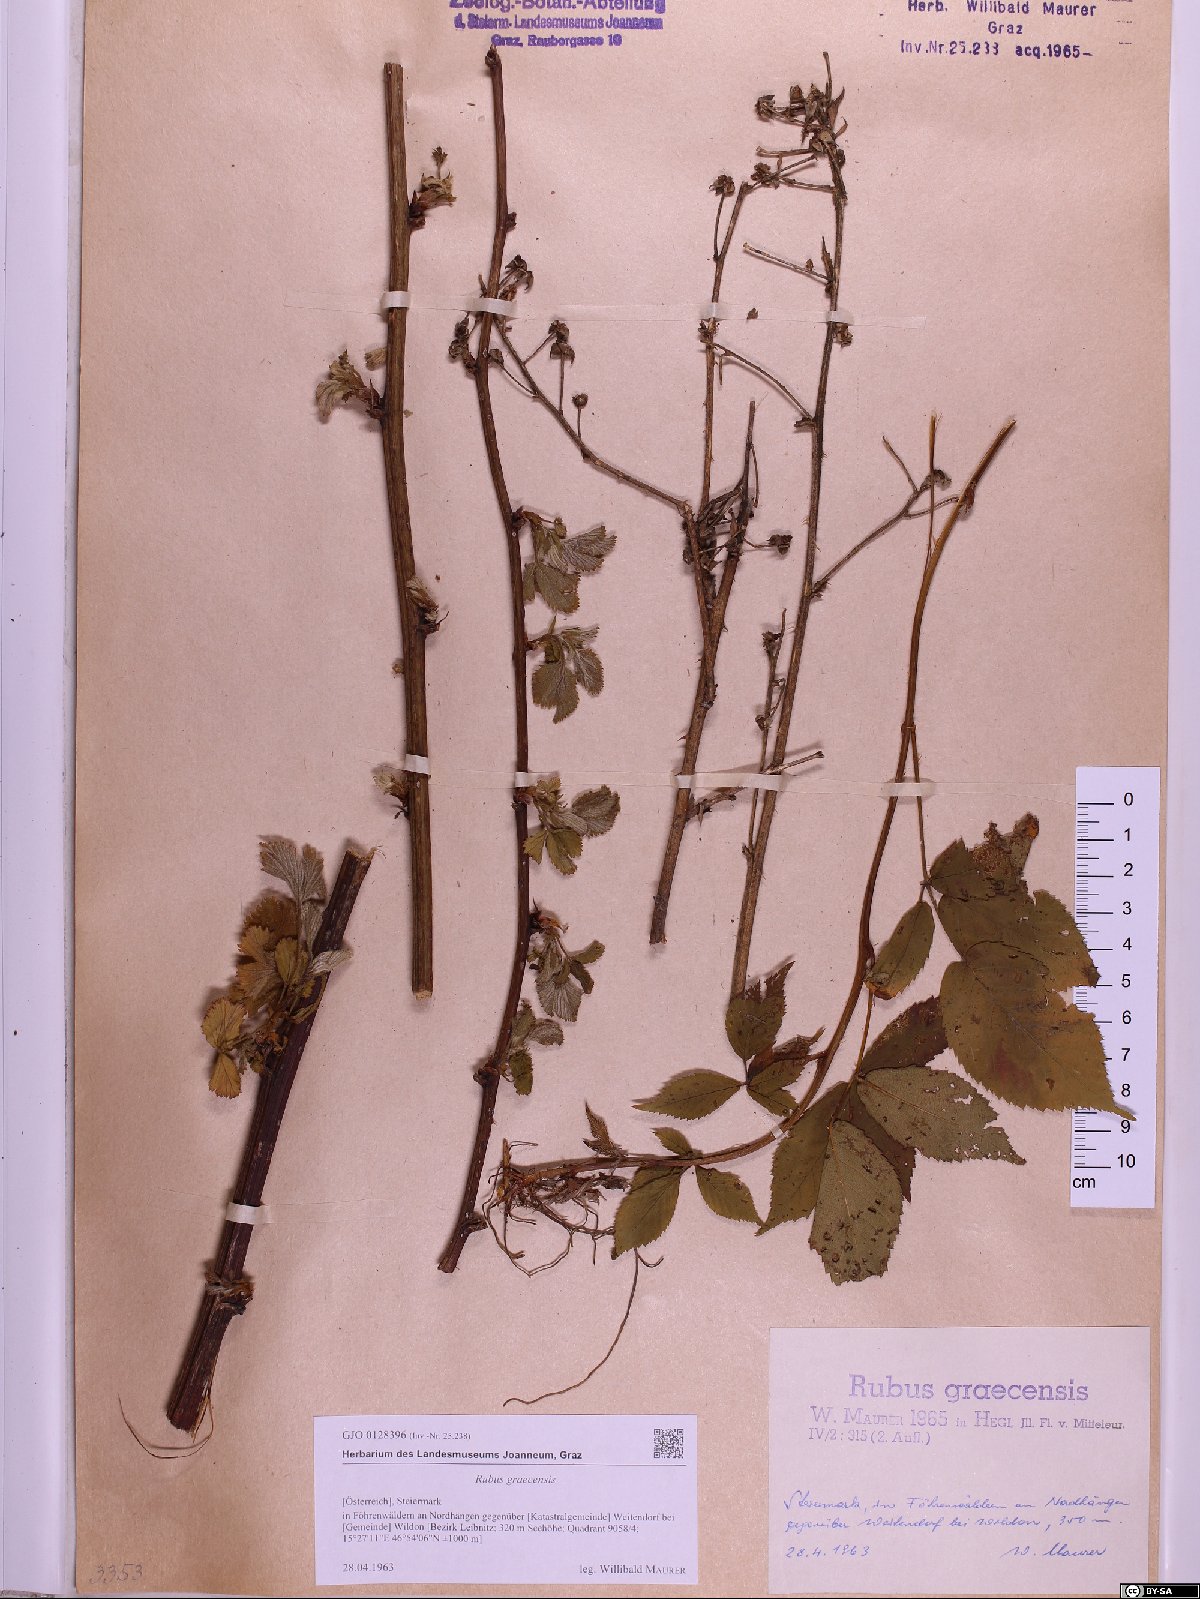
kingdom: Plantae
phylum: Tracheophyta
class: Magnoliopsida
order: Rosales
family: Rosaceae
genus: Rubus
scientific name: Rubus graecensis
